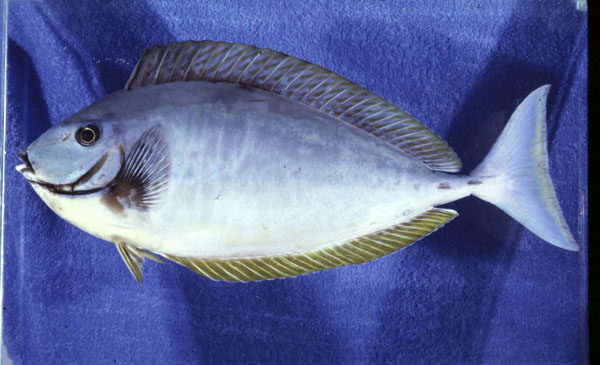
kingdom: Animalia
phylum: Chordata
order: Perciformes
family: Acanthuridae
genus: Naso
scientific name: Naso hexacanthus
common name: Black unicornfish
